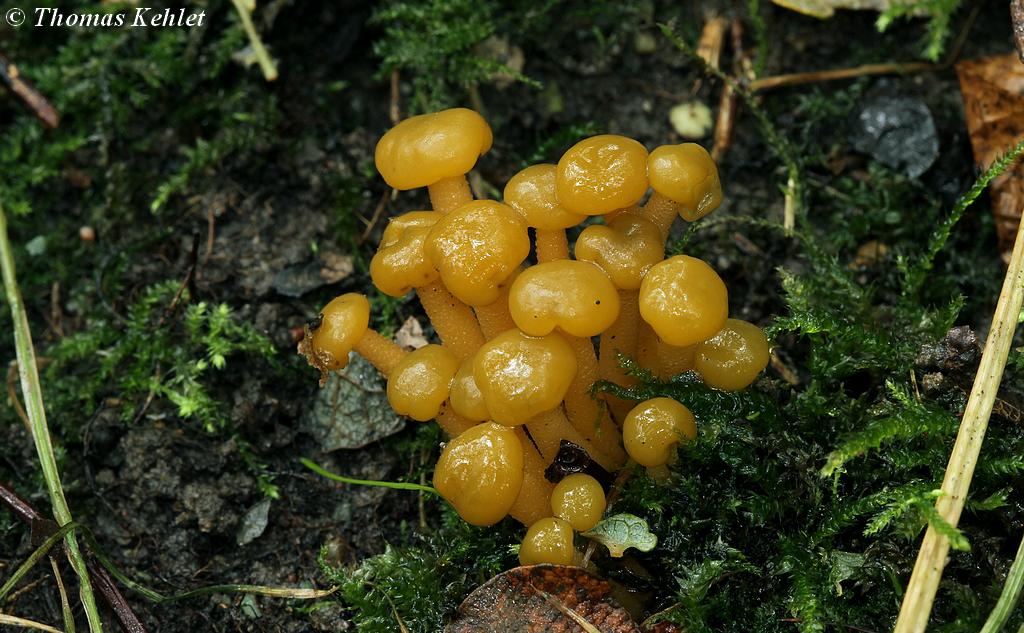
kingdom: Fungi
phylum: Ascomycota
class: Leotiomycetes
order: Leotiales
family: Leotiaceae
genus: Leotia
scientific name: Leotia lubrica
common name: ravsvamp
